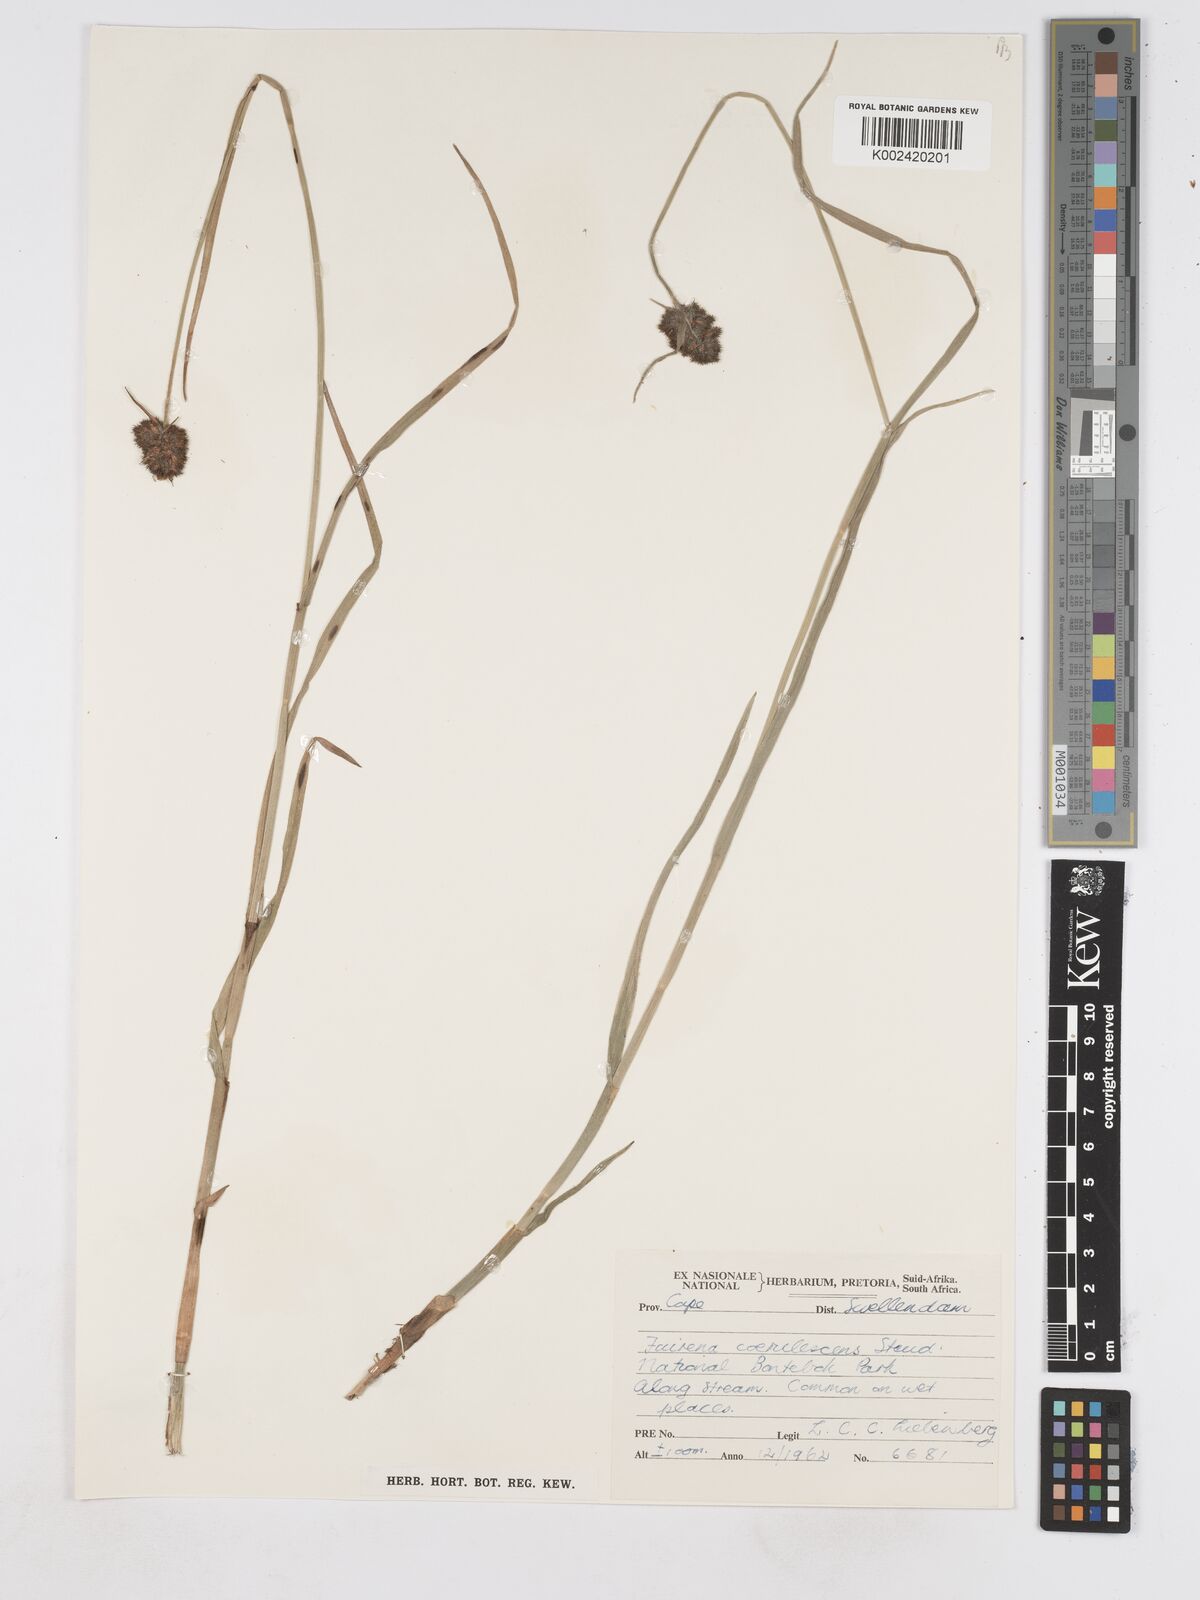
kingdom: Plantae
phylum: Tracheophyta
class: Liliopsida
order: Poales
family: Cyperaceae
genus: Fuirena
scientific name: Fuirena coerulescens
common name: Blue umbrella-sedge
